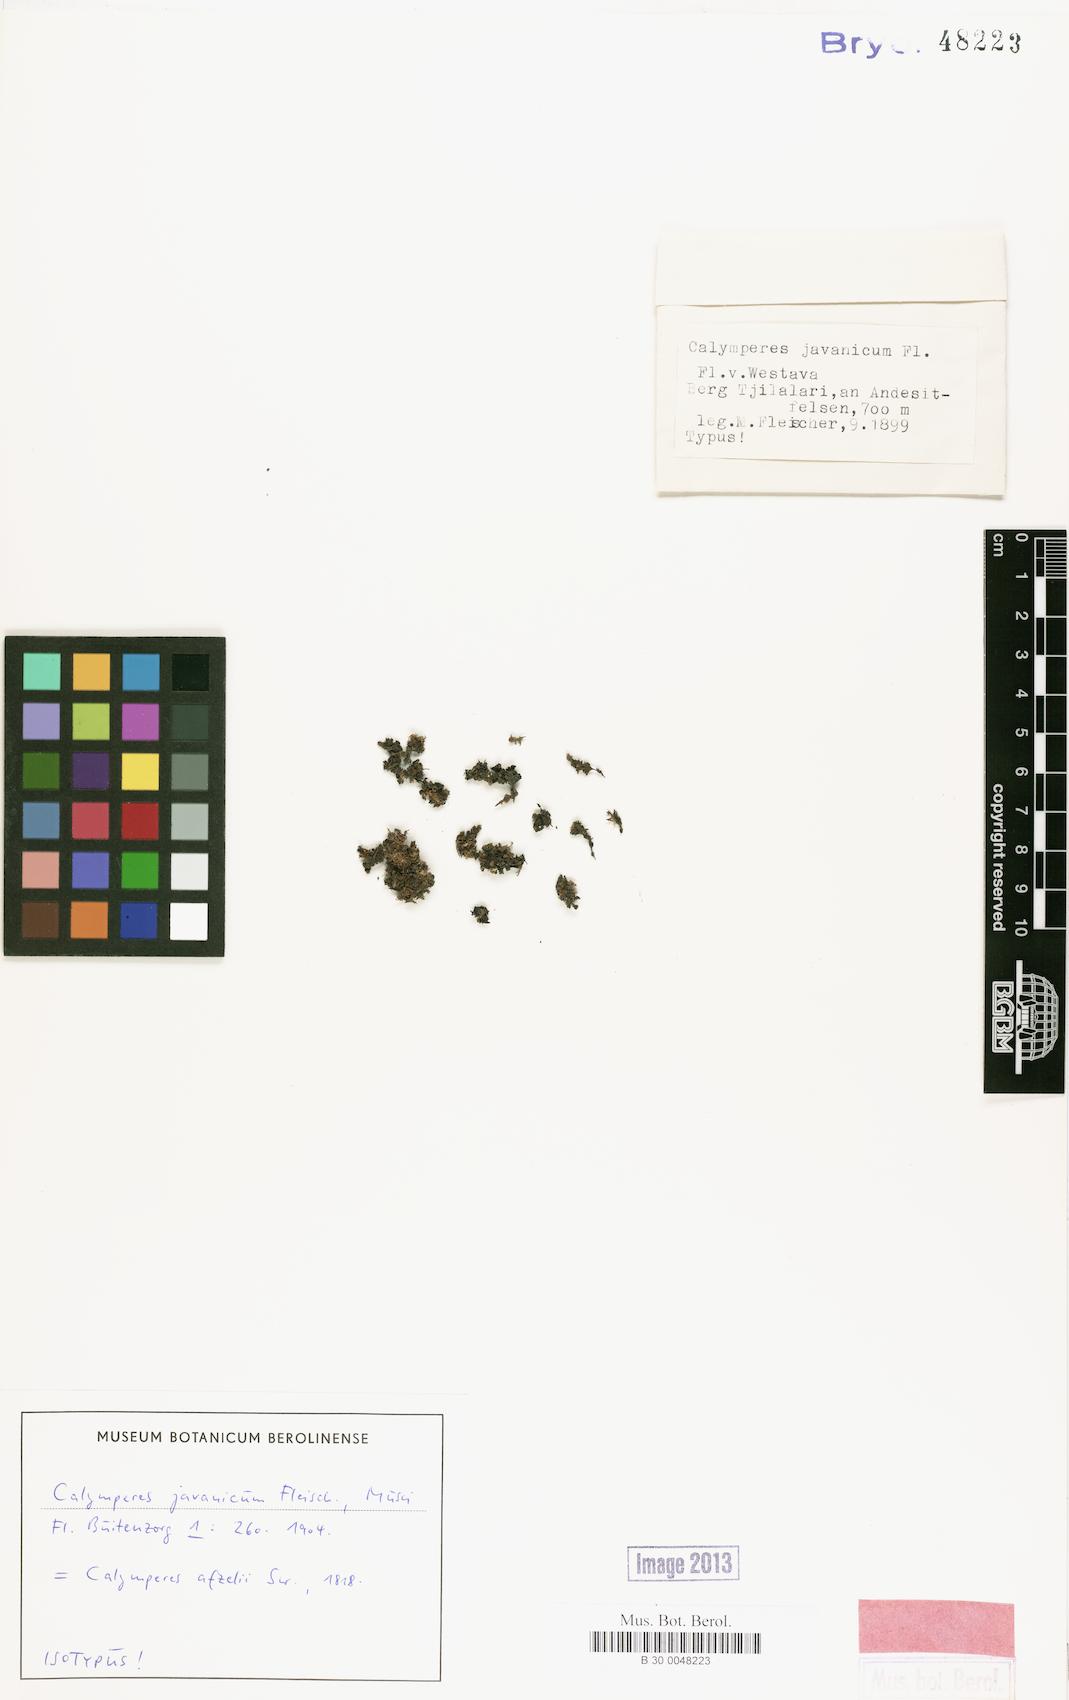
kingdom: Plantae
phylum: Bryophyta
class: Bryopsida
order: Dicranales
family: Calymperaceae
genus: Calymperes
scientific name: Calymperes afzelii
